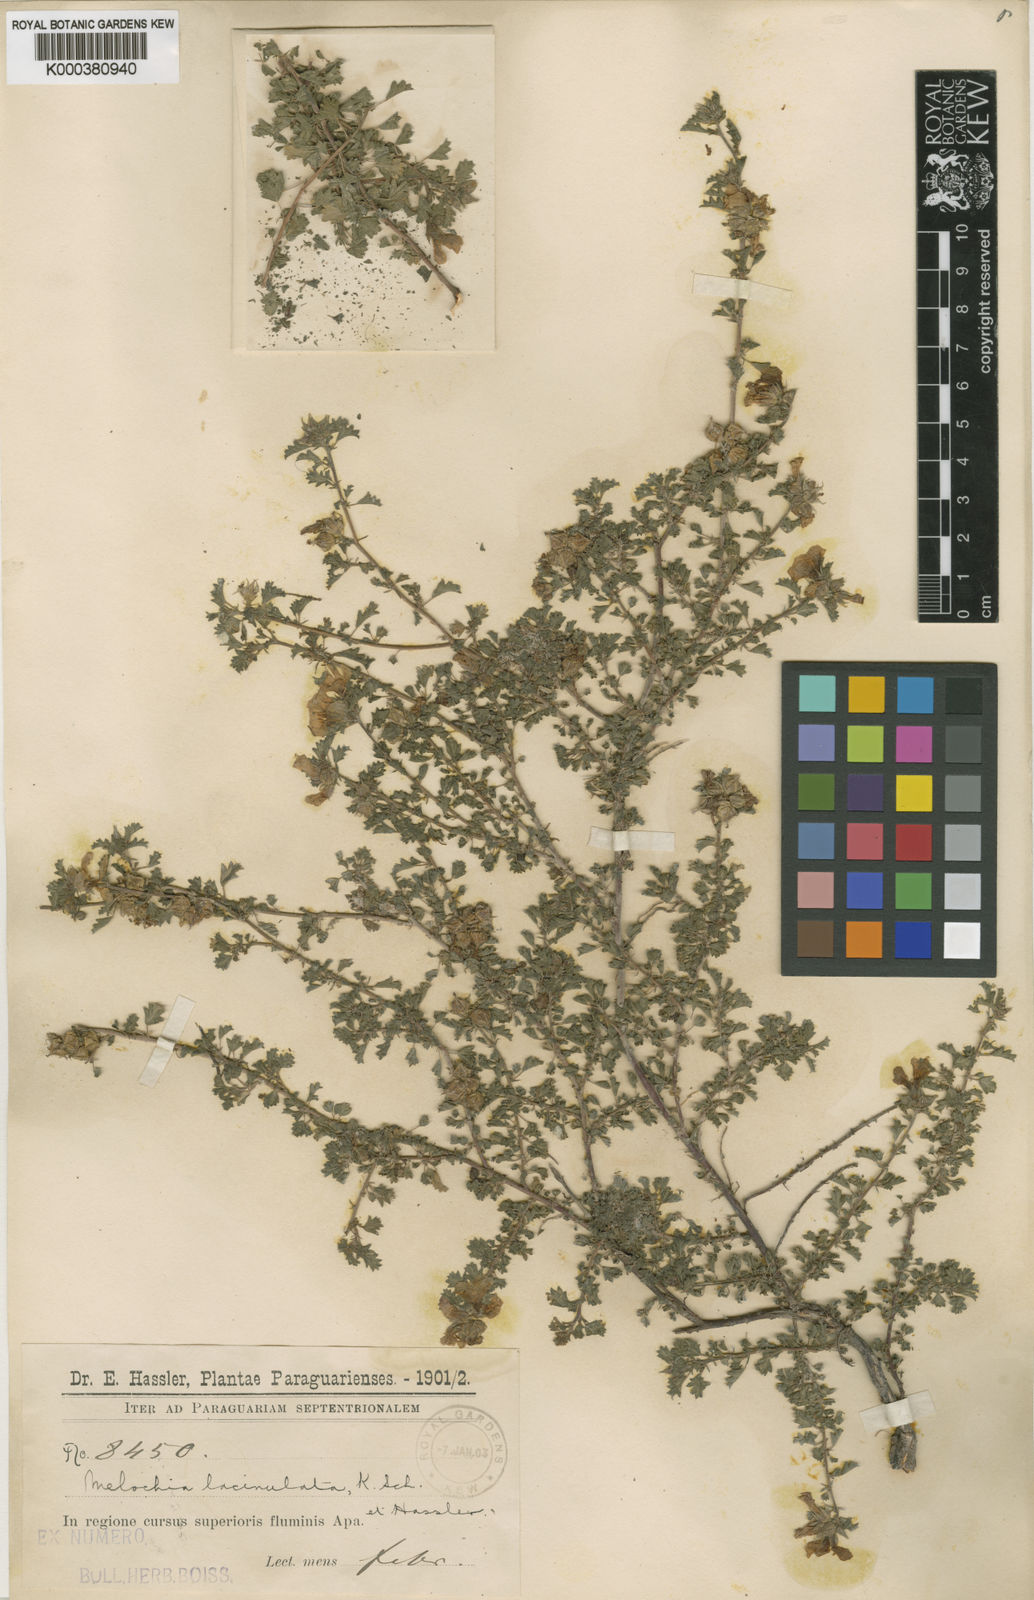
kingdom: Plantae
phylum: Tracheophyta
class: Magnoliopsida
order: Malvales
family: Malvaceae
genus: Melochia
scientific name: Melochia hermannioides
